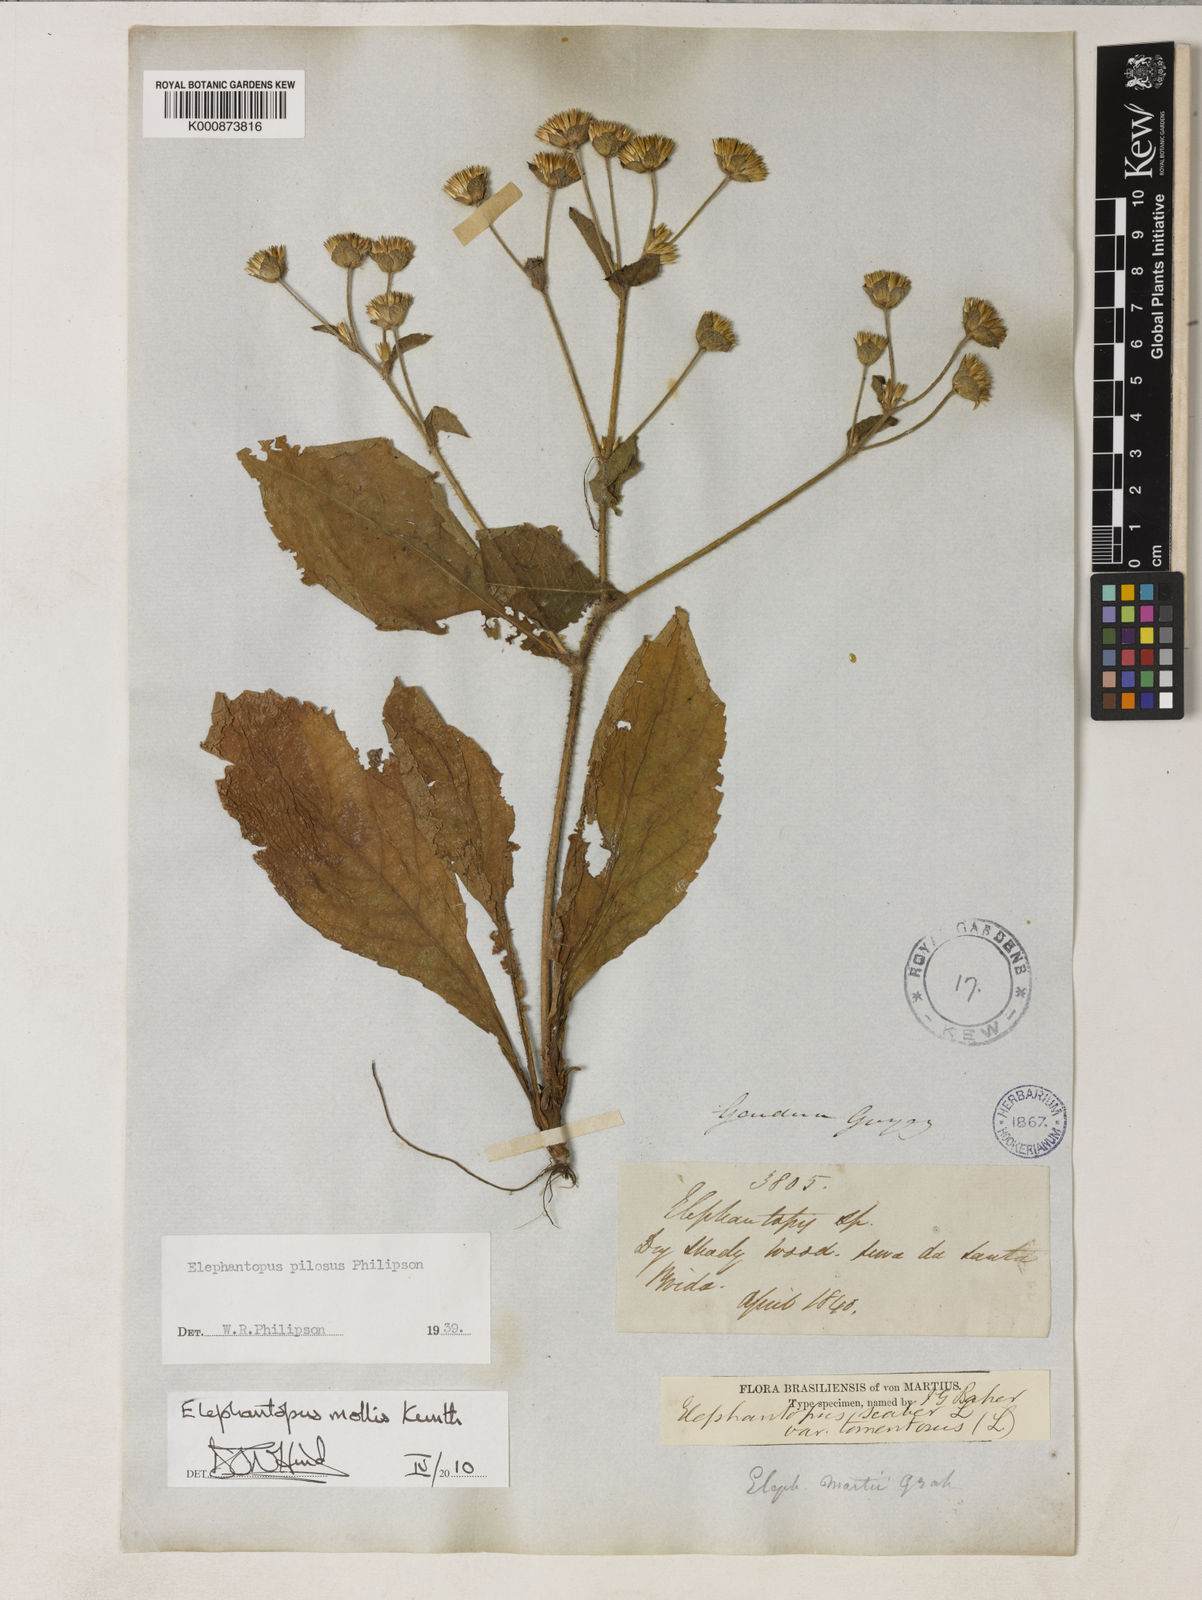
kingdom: Plantae
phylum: Tracheophyta
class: Magnoliopsida
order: Asterales
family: Asteraceae
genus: Elephantopus
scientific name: Elephantopus mollis
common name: Soft elephantsfoot
